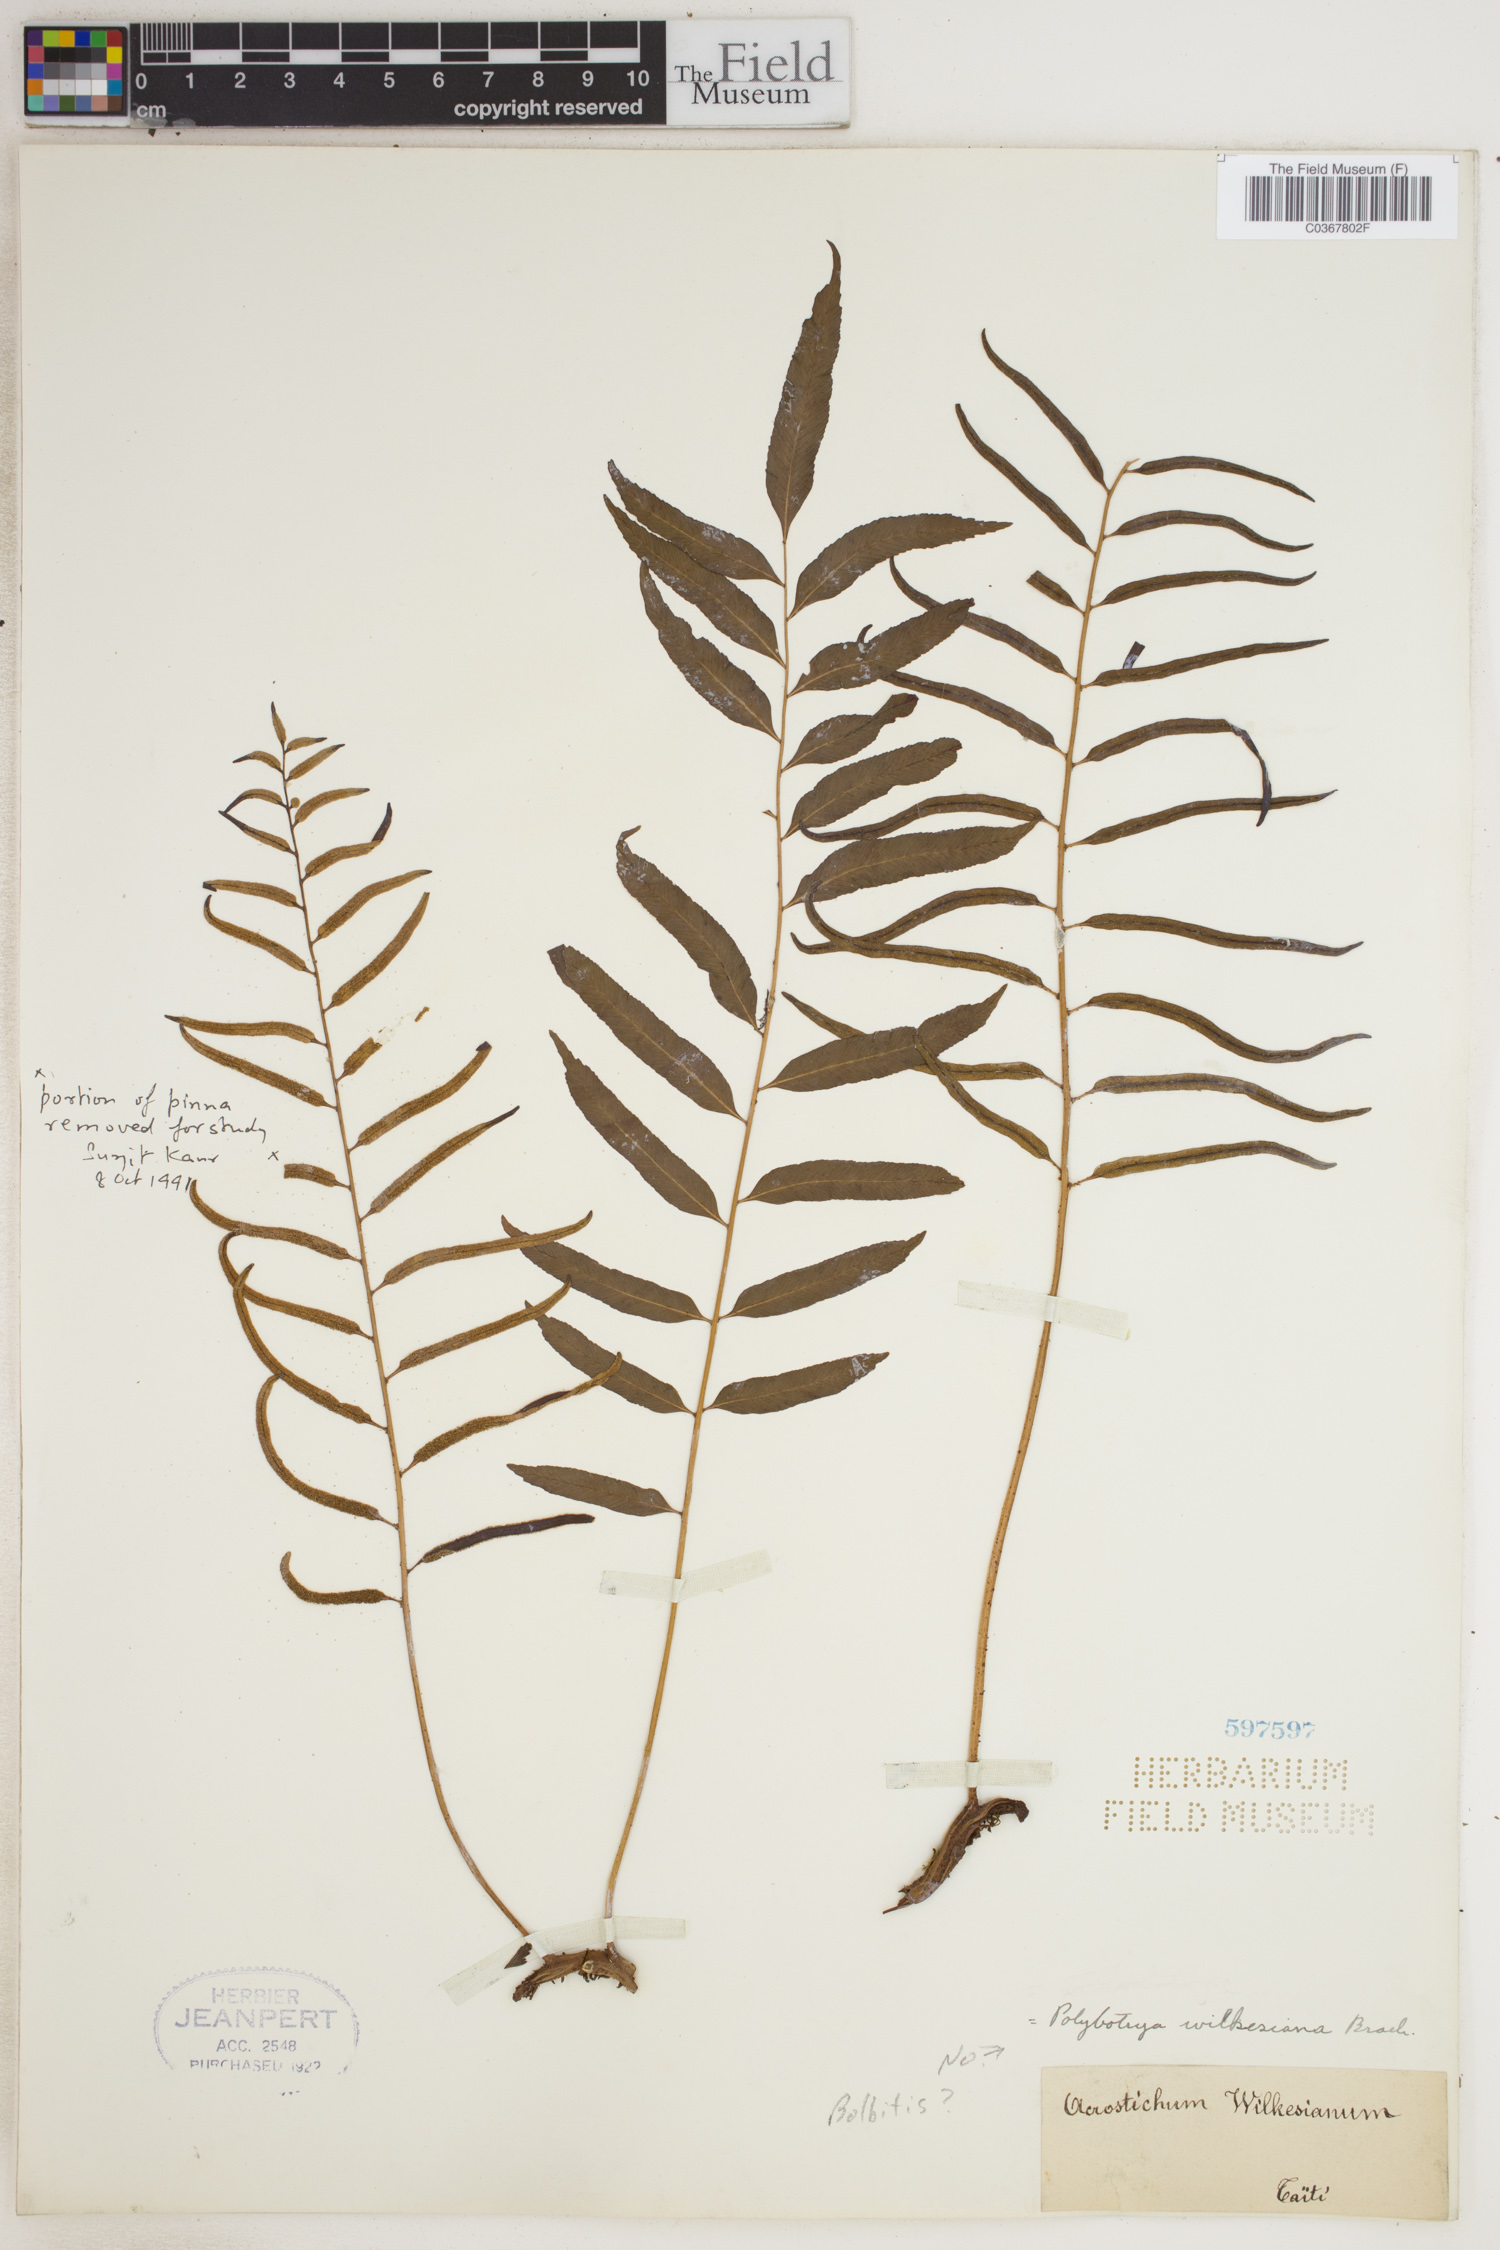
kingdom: Plantae
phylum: Tracheophyta
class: Polypodiopsida
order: Polypodiales
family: Dryopteridaceae
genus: Bolbitis
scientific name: Bolbitis
